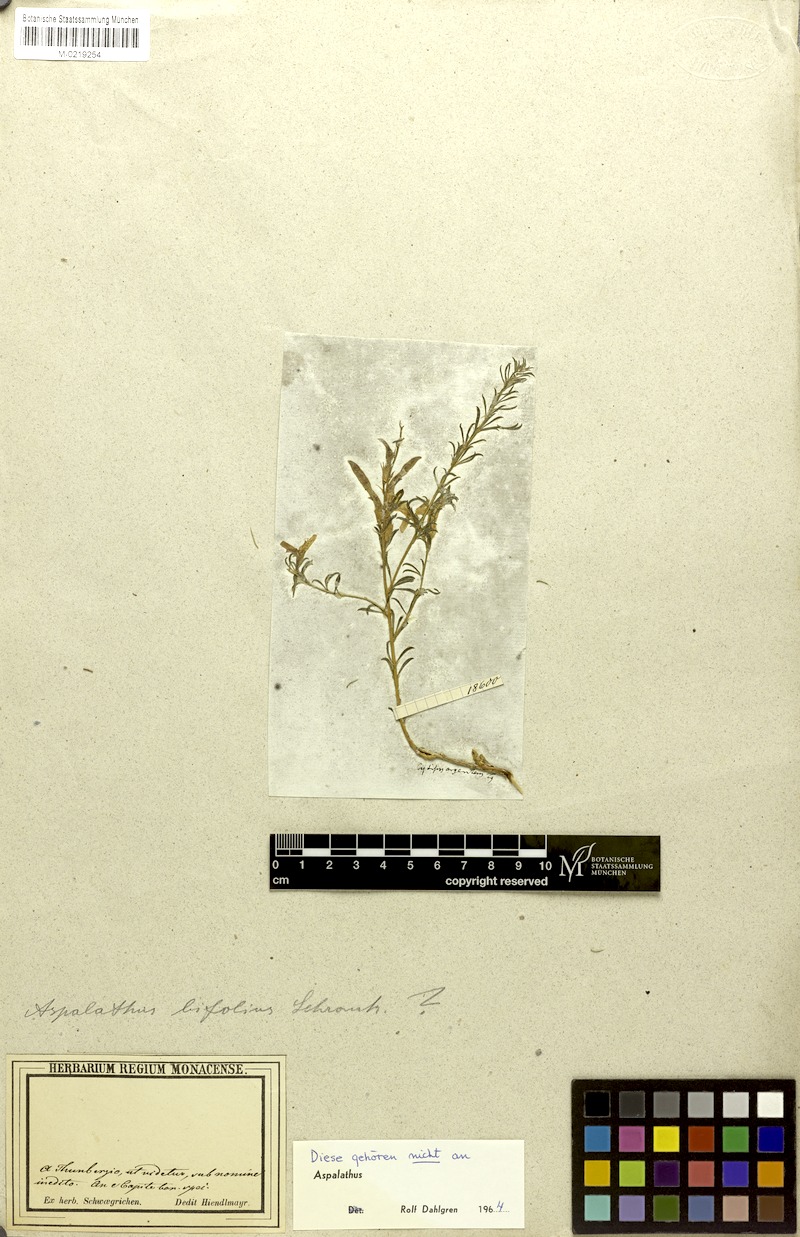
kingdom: Plantae
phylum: Tracheophyta
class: Magnoliopsida
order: Fabales
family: Fabaceae
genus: Aspalathus
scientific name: Aspalathus
